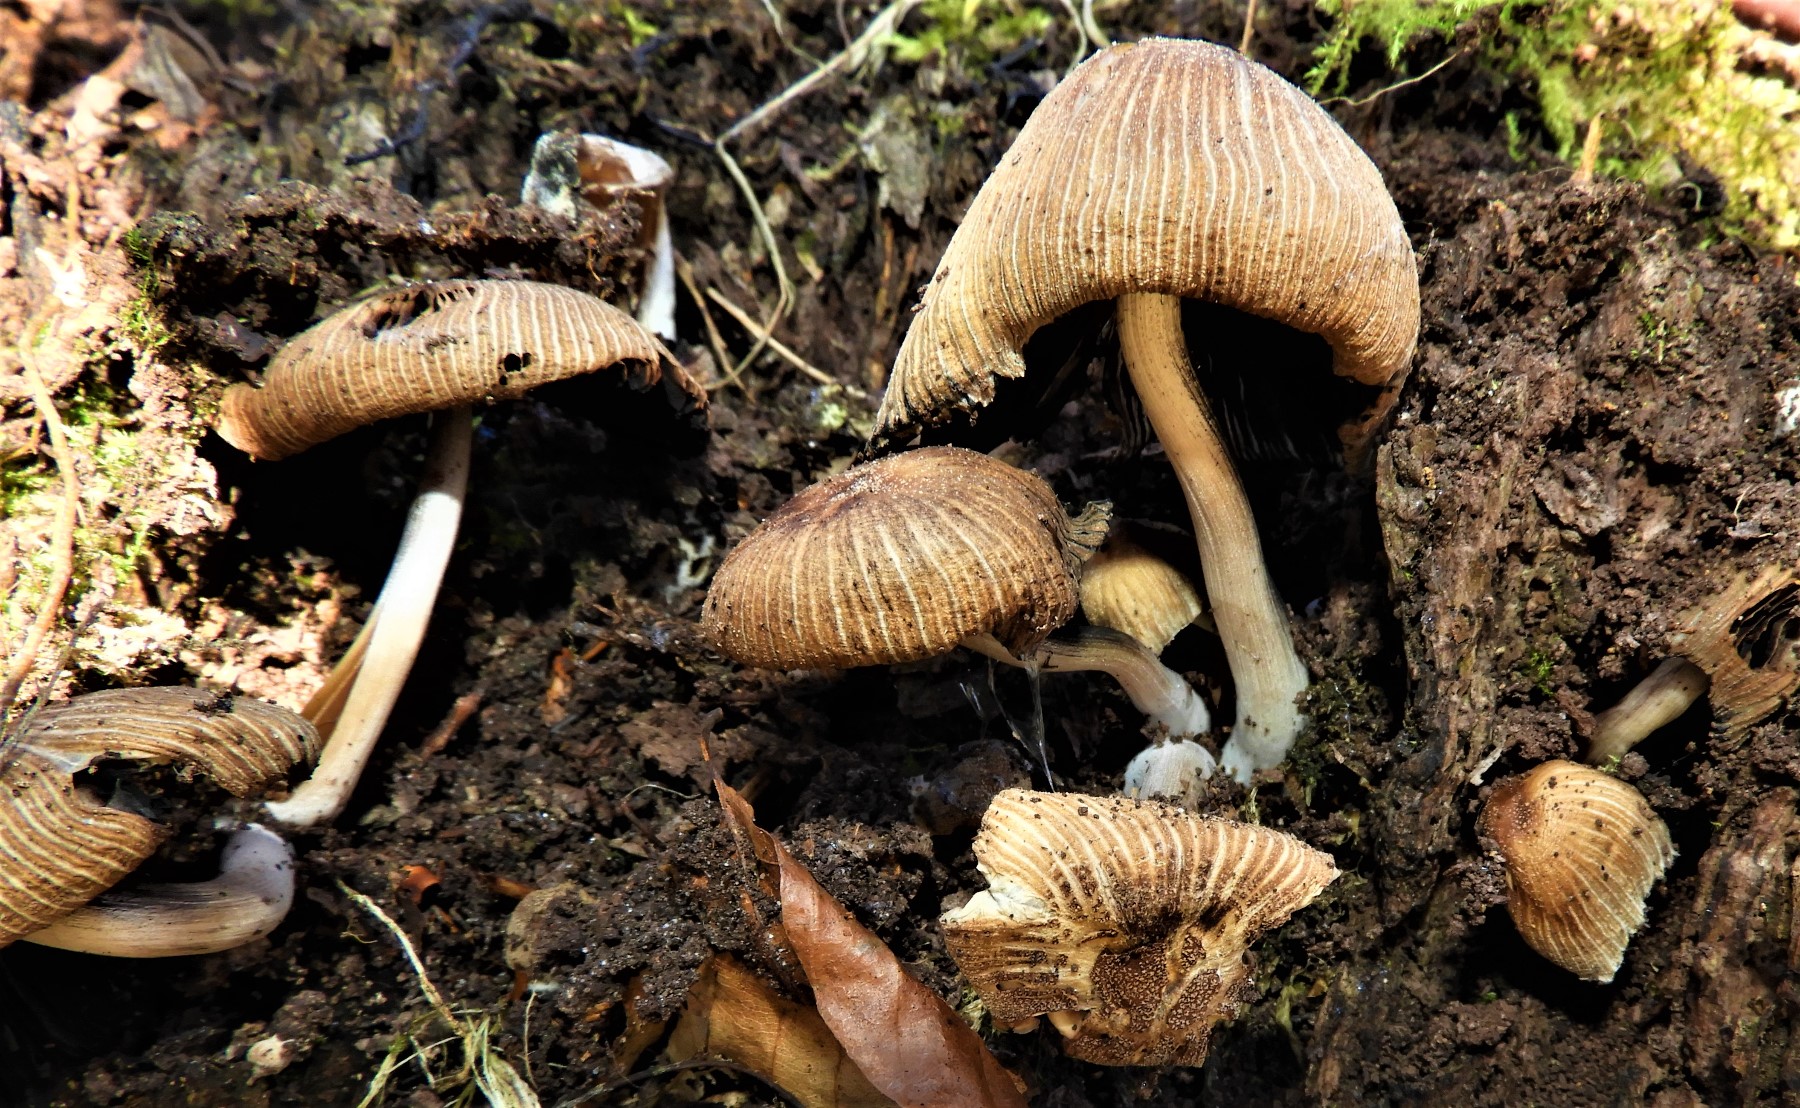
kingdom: Fungi
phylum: Basidiomycota
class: Agaricomycetes
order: Agaricales
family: Psathyrellaceae
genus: Coprinellus
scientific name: Coprinellus
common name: blækhat
